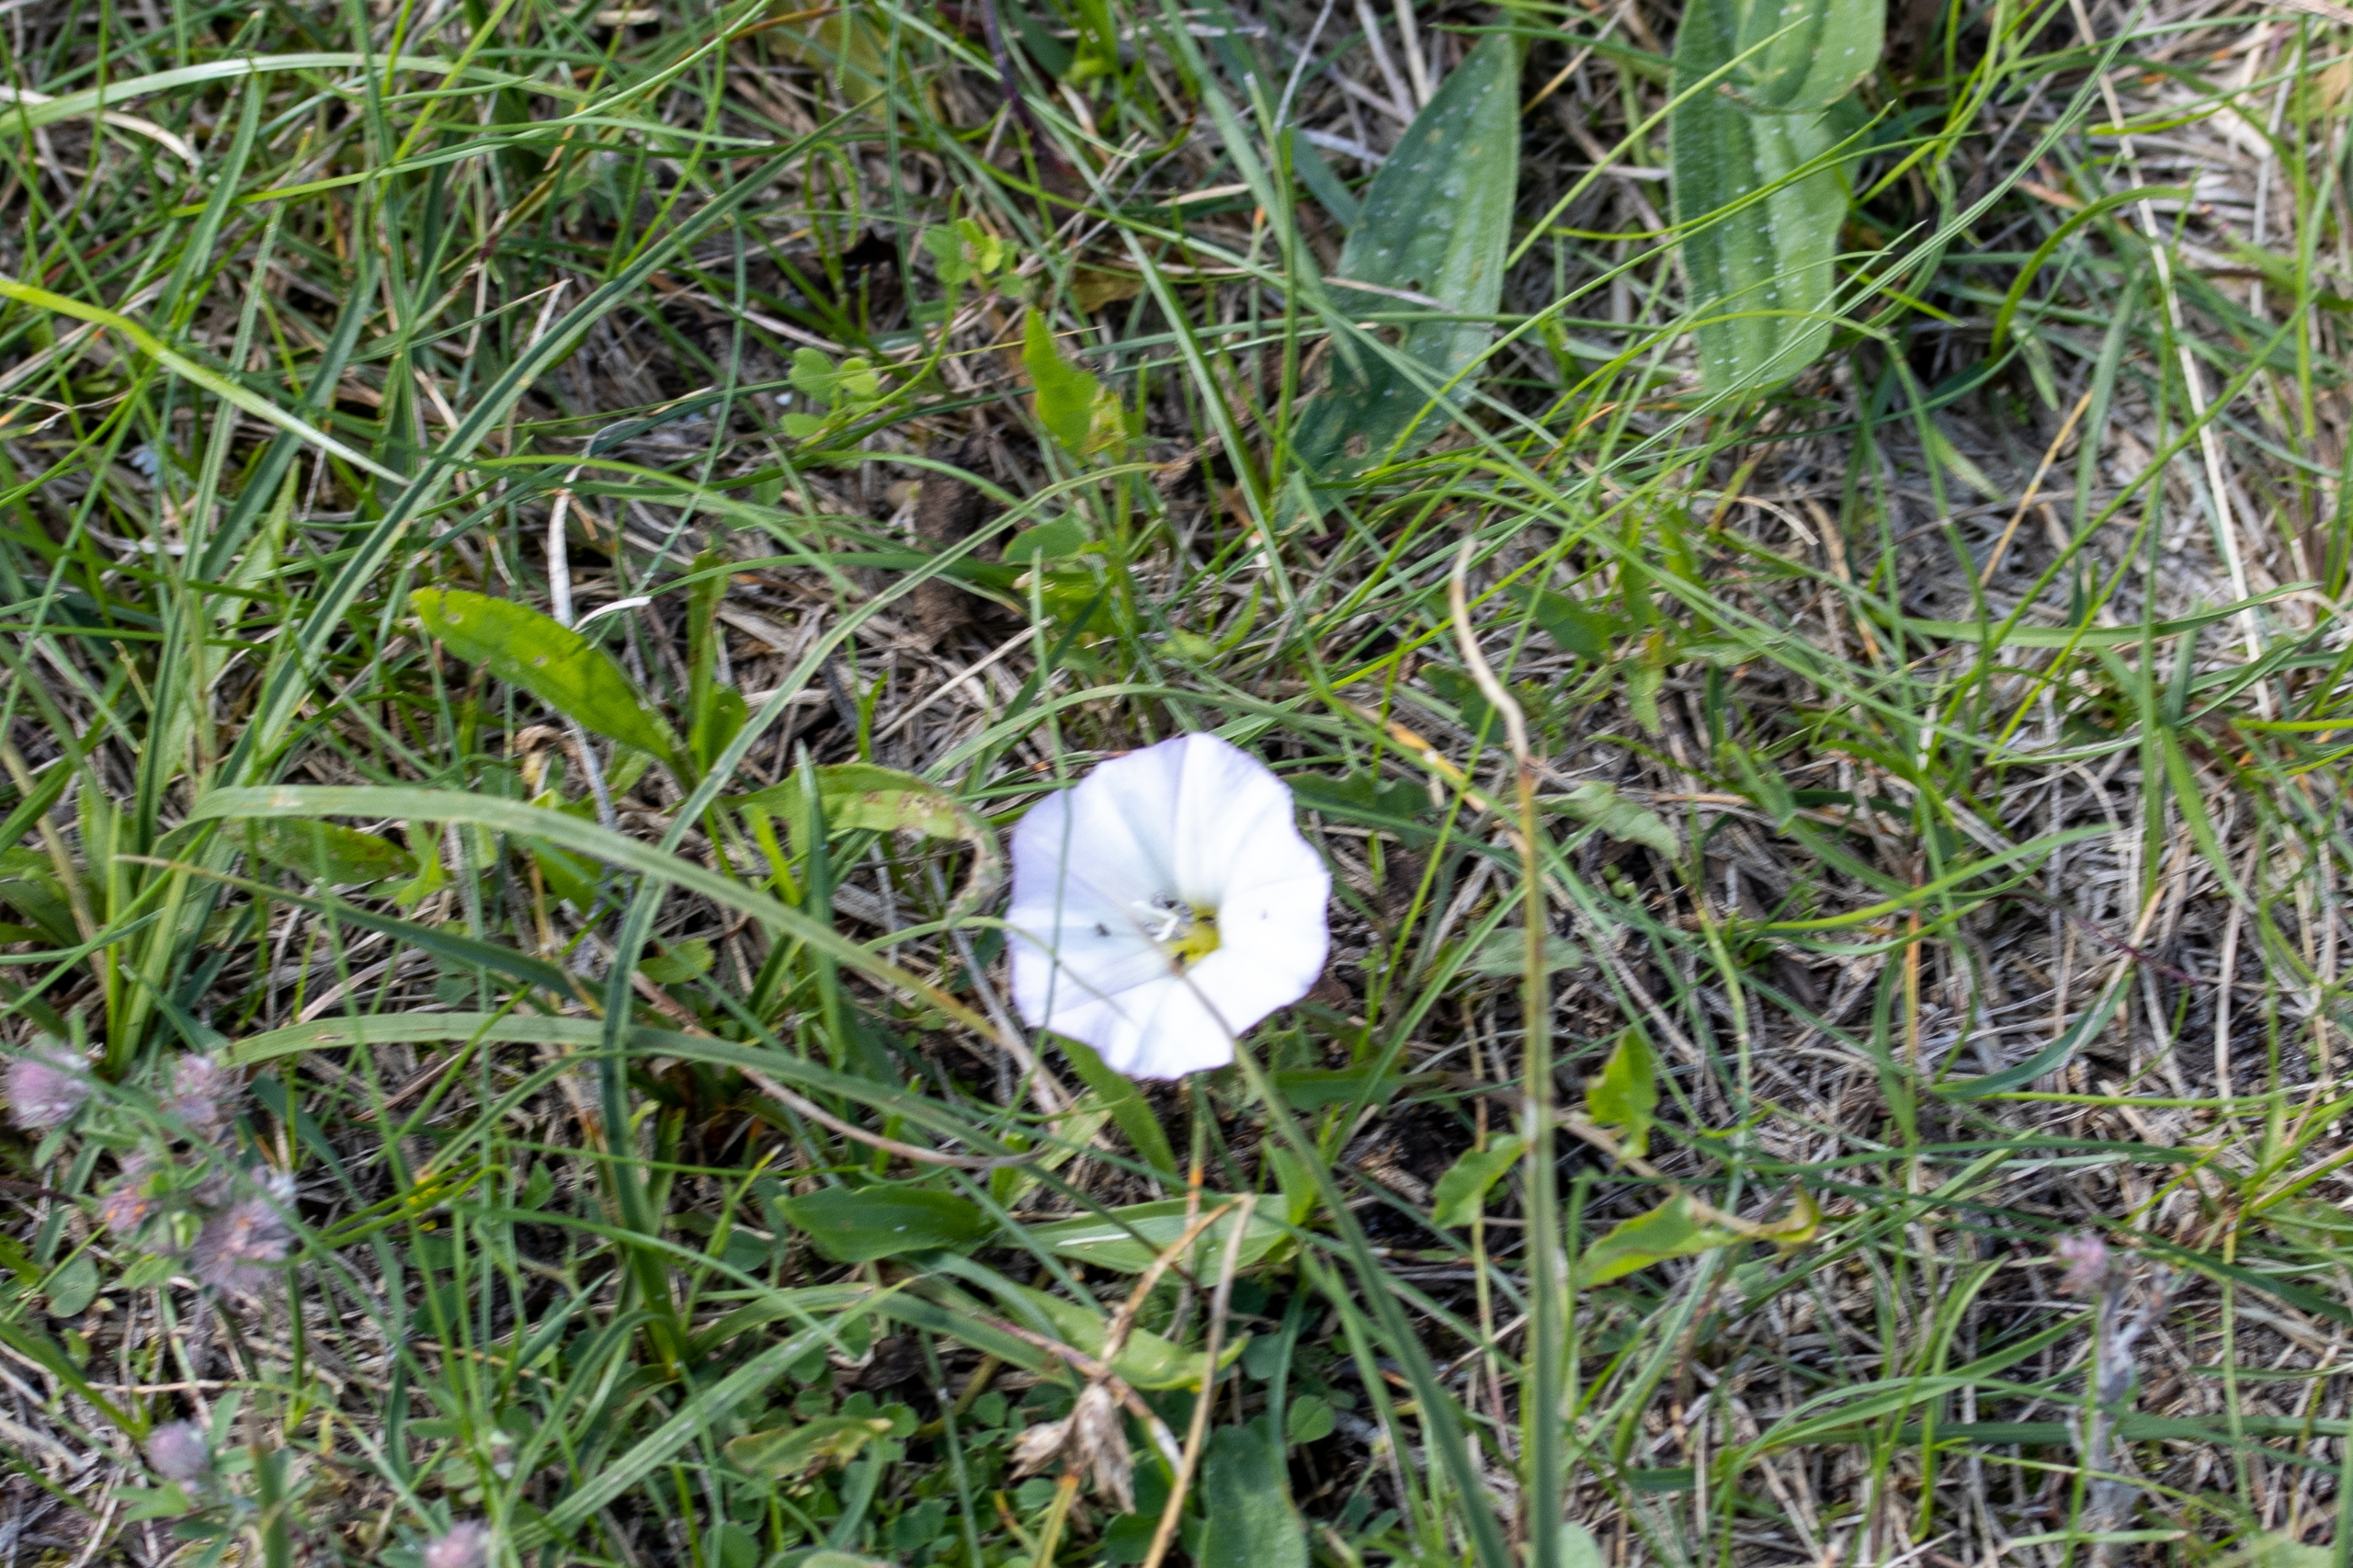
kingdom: Plantae
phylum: Tracheophyta
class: Magnoliopsida
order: Solanales
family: Convolvulaceae
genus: Convolvulus
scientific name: Convolvulus arvensis
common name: Ager-snerle
